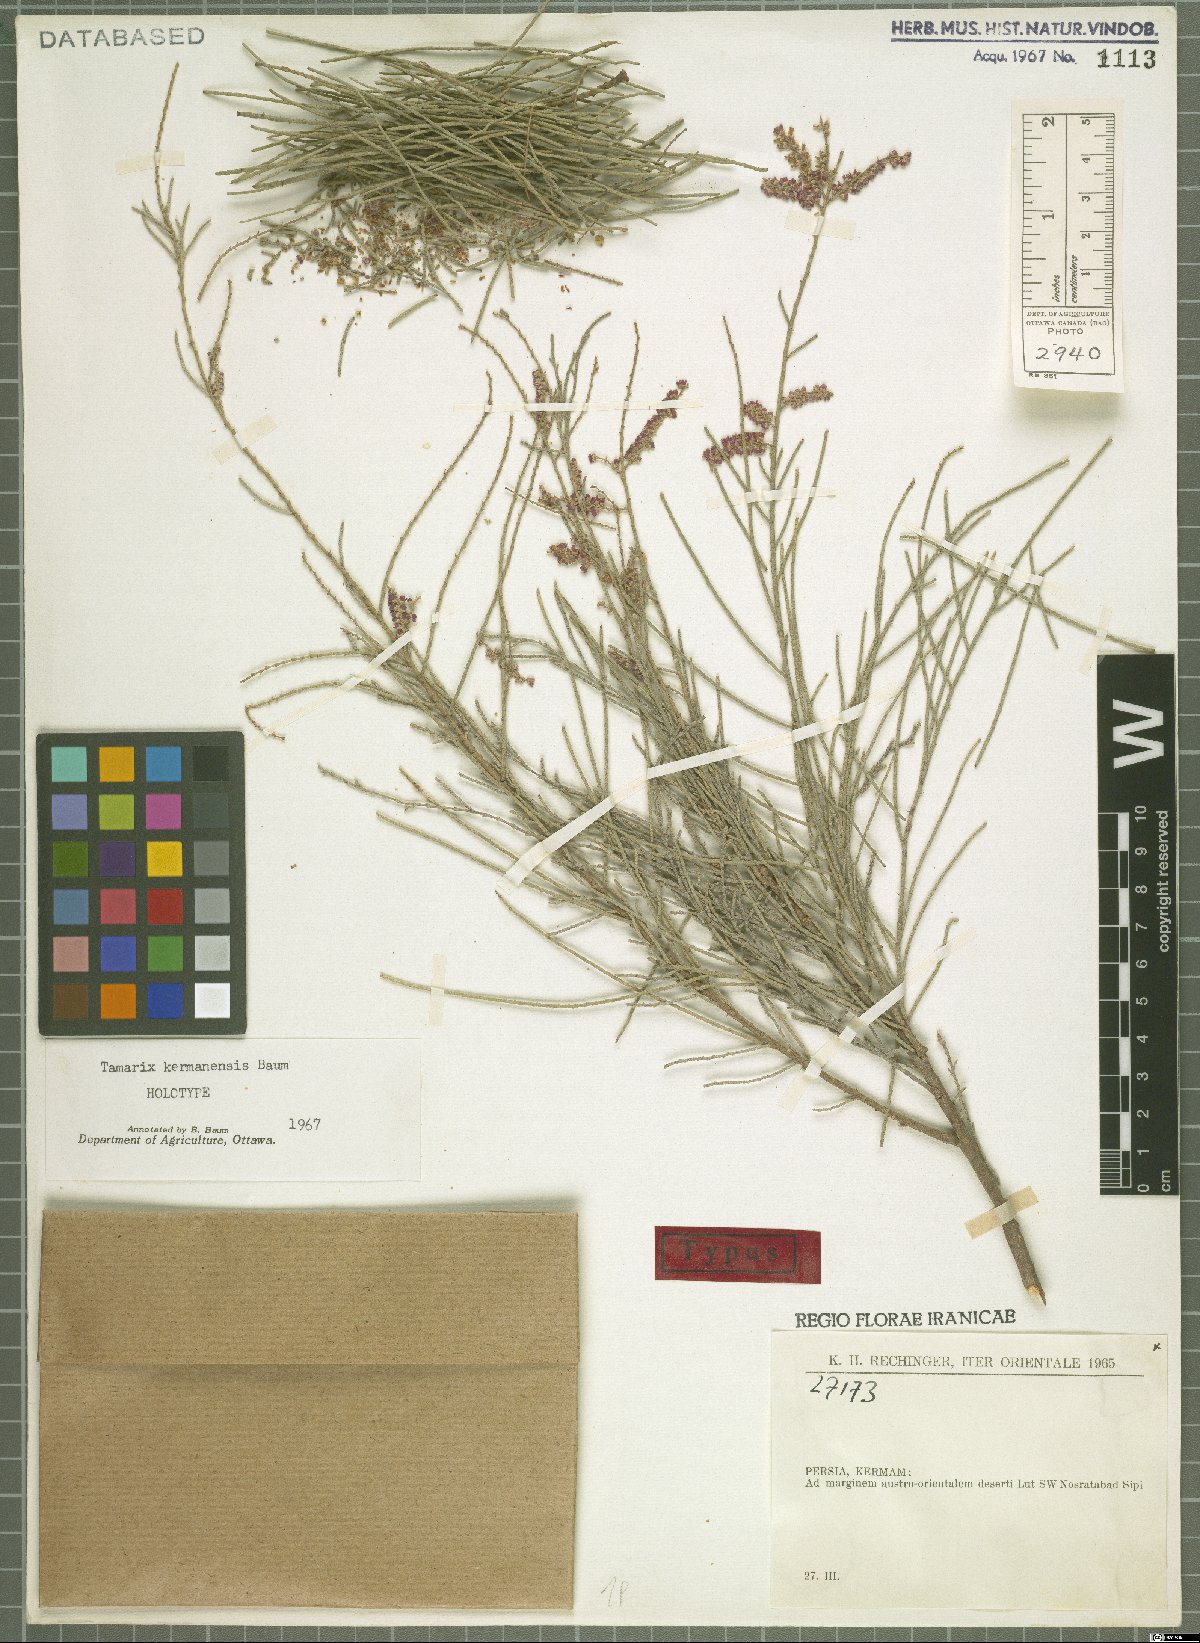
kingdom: Plantae
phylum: Tracheophyta
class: Magnoliopsida
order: Caryophyllales
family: Tamaricaceae
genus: Tamarix
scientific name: Tamarix kermanensis
